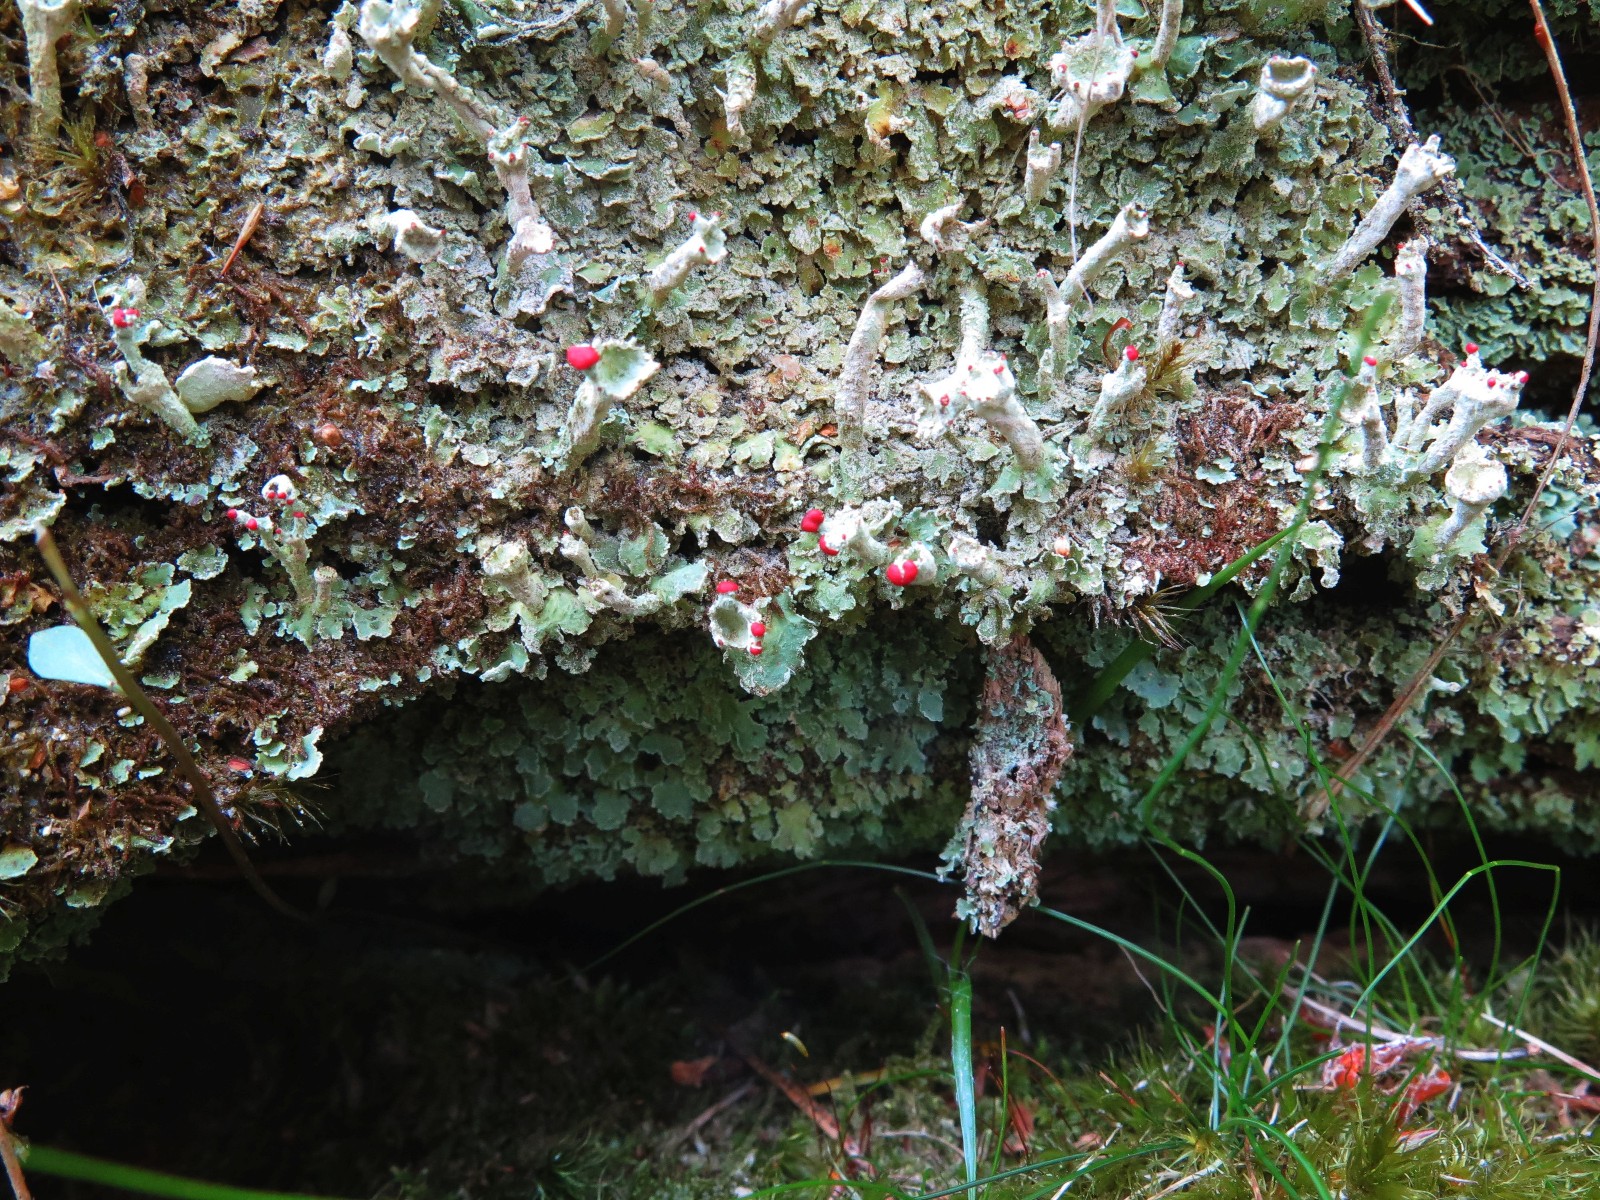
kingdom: Fungi
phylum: Ascomycota
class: Lecanoromycetes
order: Lecanorales
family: Cladoniaceae
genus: Cladonia
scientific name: Cladonia digitata
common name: finger-bægerlav
